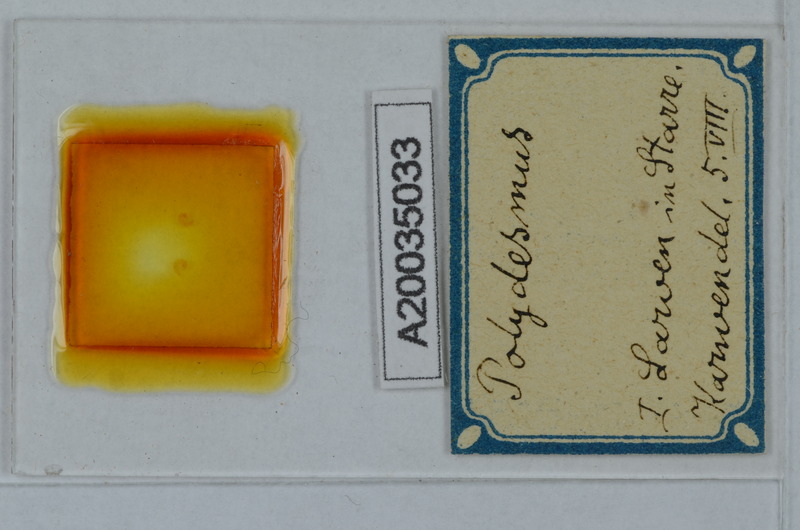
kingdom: Animalia
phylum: Arthropoda
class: Diplopoda
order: Polydesmida
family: Polydesmidae
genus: Polydesmus
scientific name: Polydesmus
